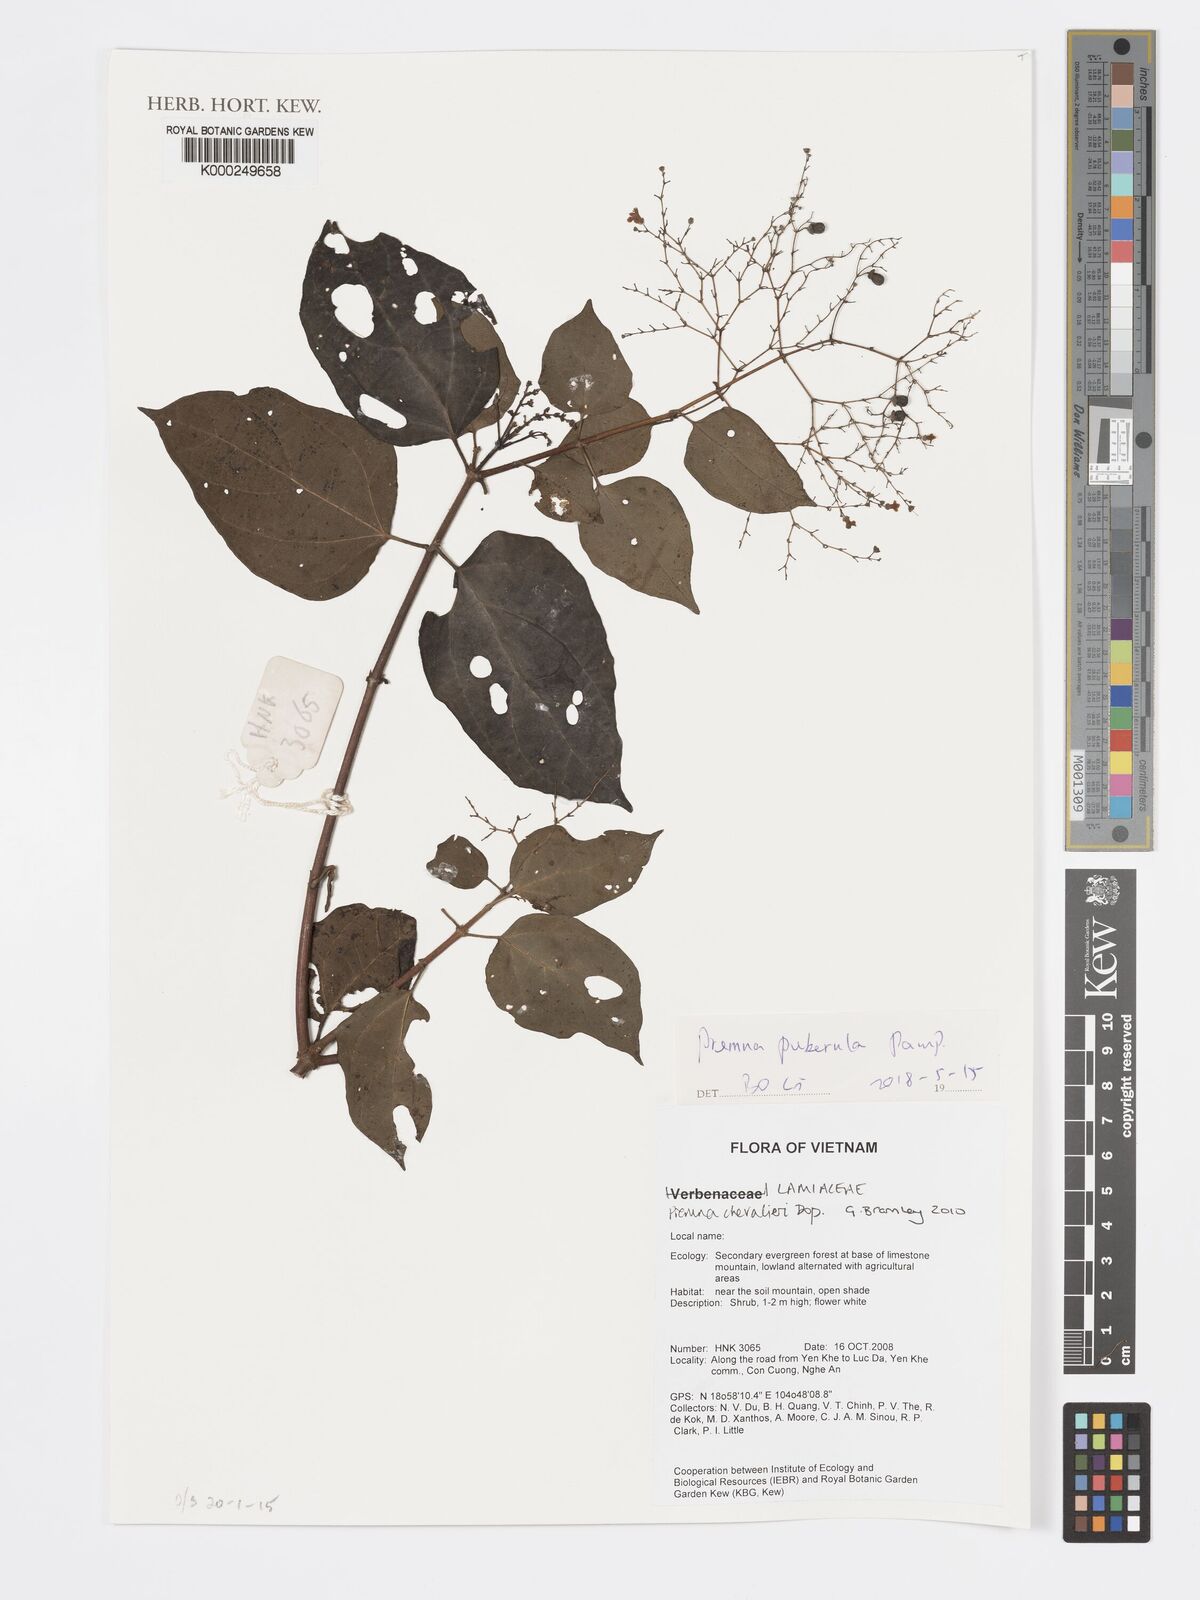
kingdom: Plantae
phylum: Tracheophyta
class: Magnoliopsida
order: Lamiales
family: Lamiaceae
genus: Premna
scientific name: Premna chevalieri
